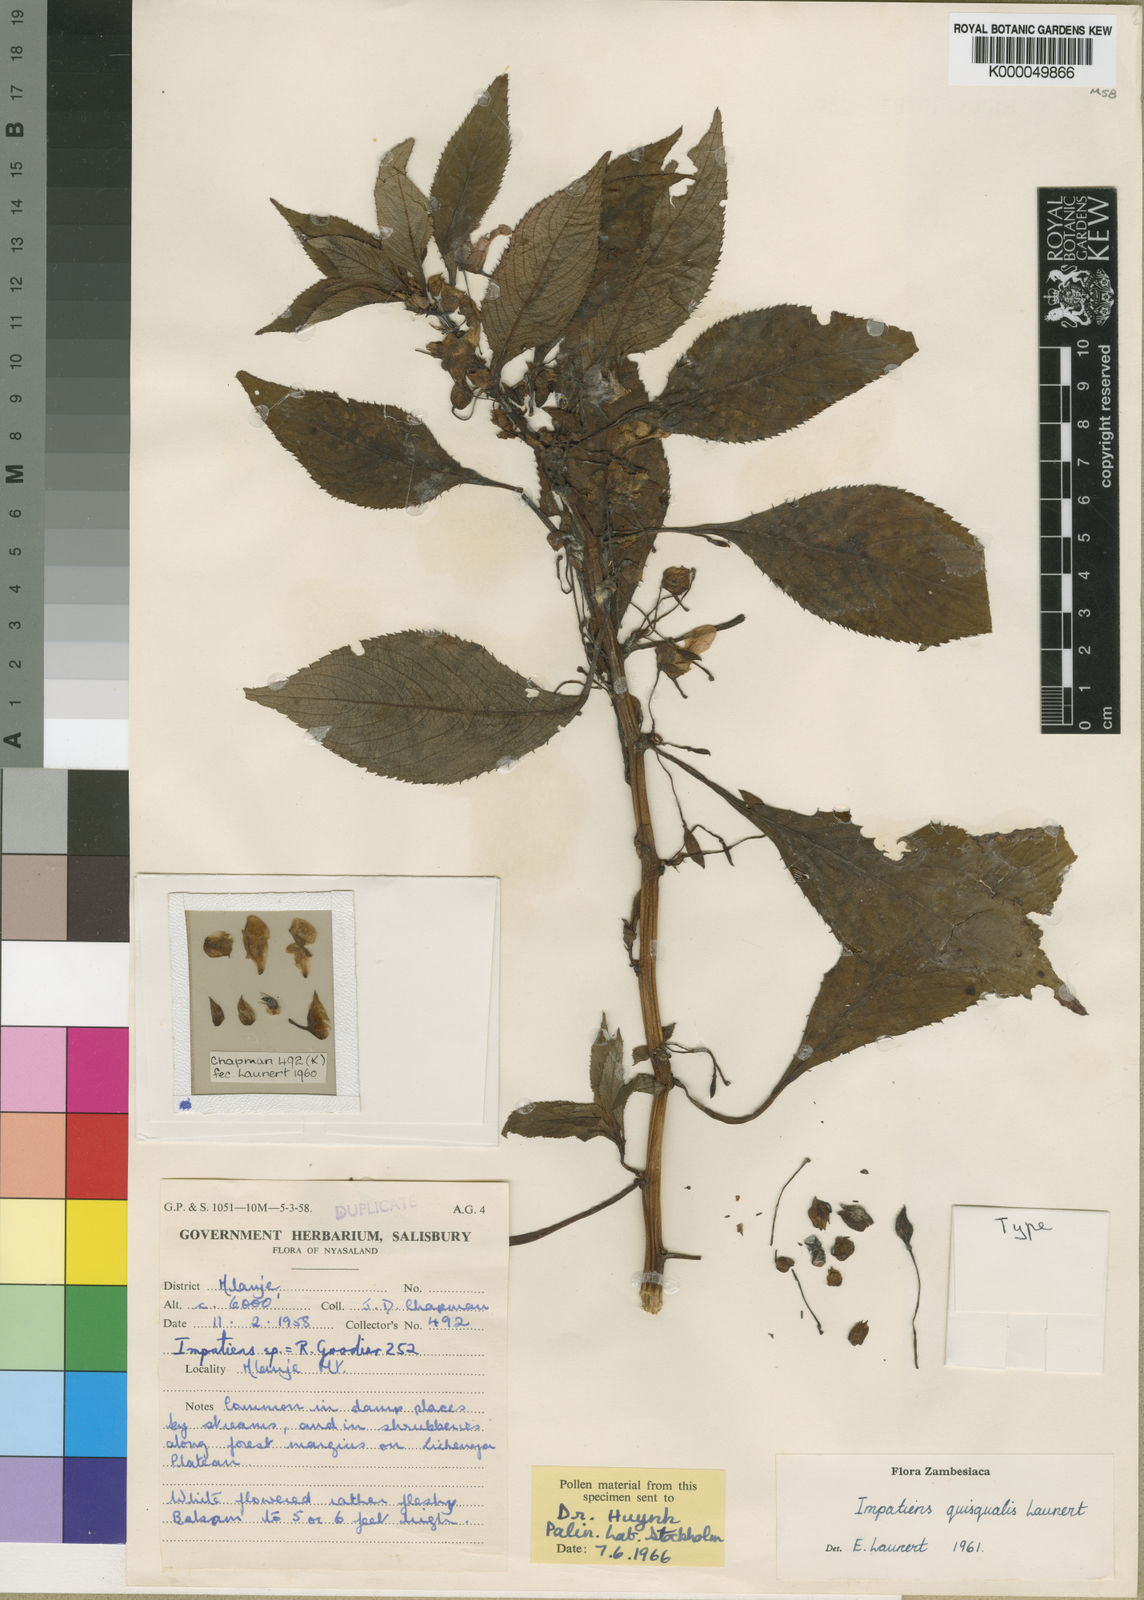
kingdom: Plantae
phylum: Tracheophyta
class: Magnoliopsida
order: Ericales
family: Balsaminaceae
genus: Impatiens
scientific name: Impatiens quisqualis
